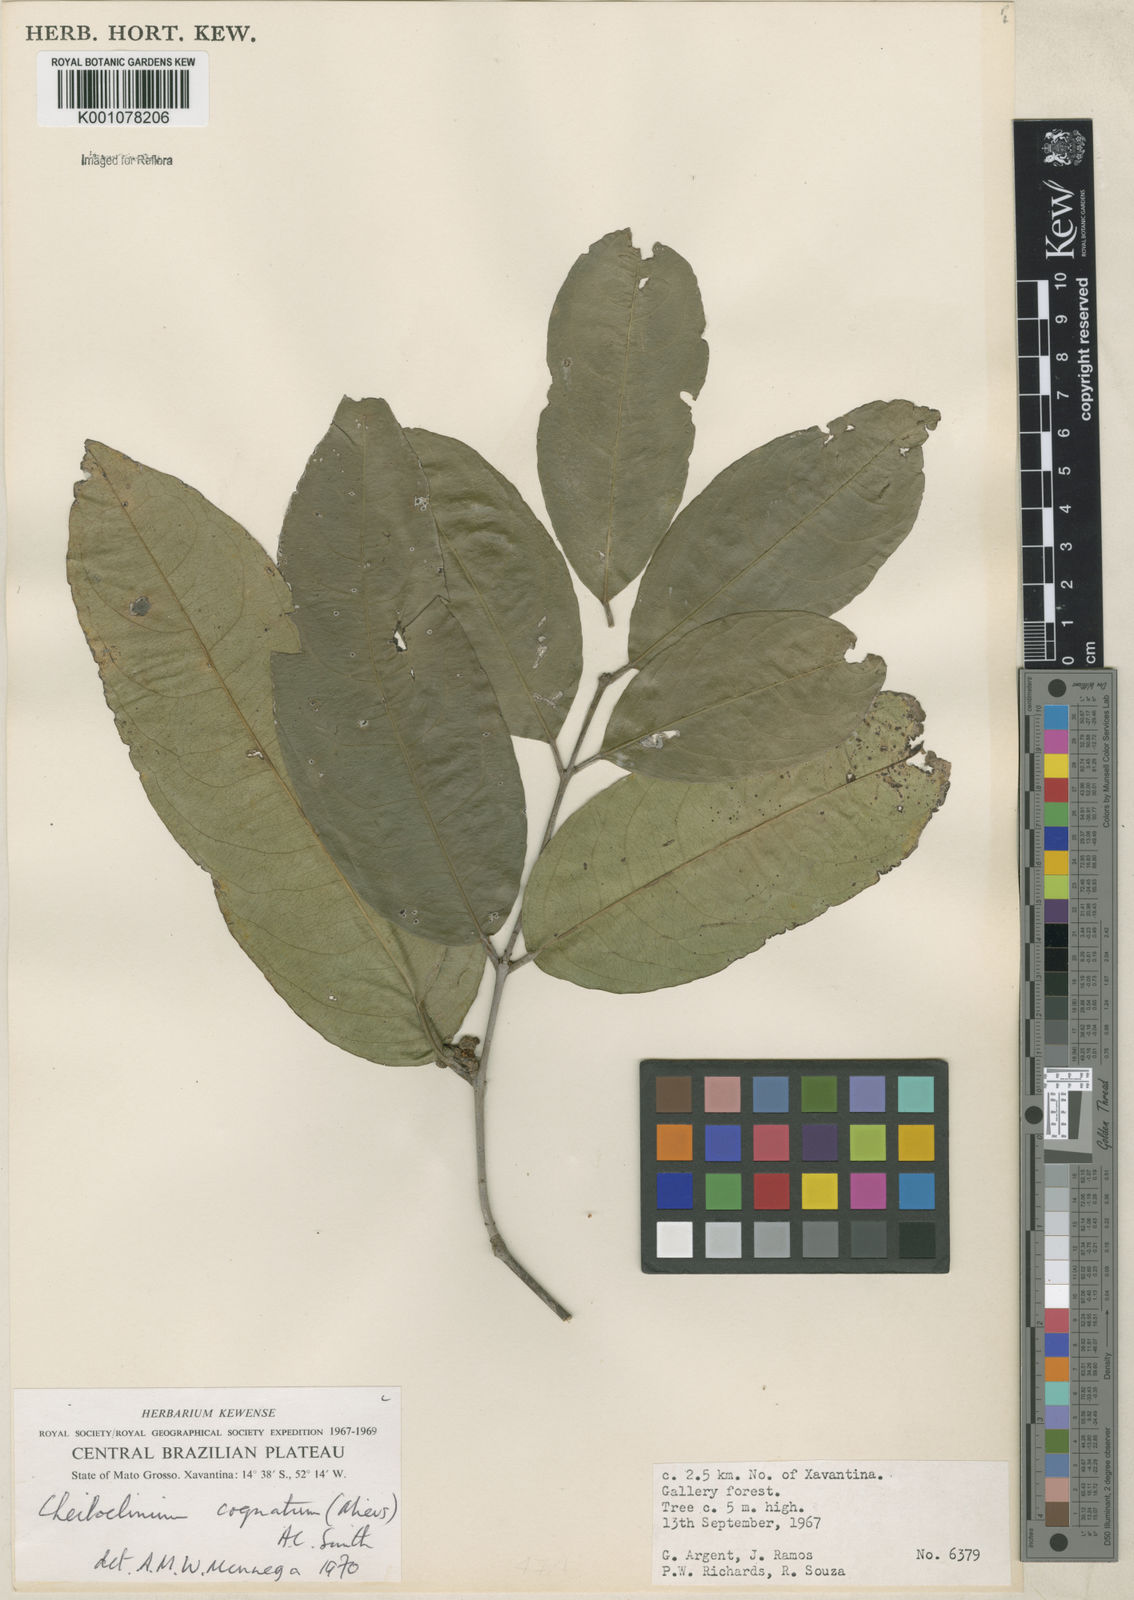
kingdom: Plantae
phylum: Tracheophyta
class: Magnoliopsida
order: Celastrales
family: Celastraceae
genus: Cheiloclinium
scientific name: Cheiloclinium cognatum
